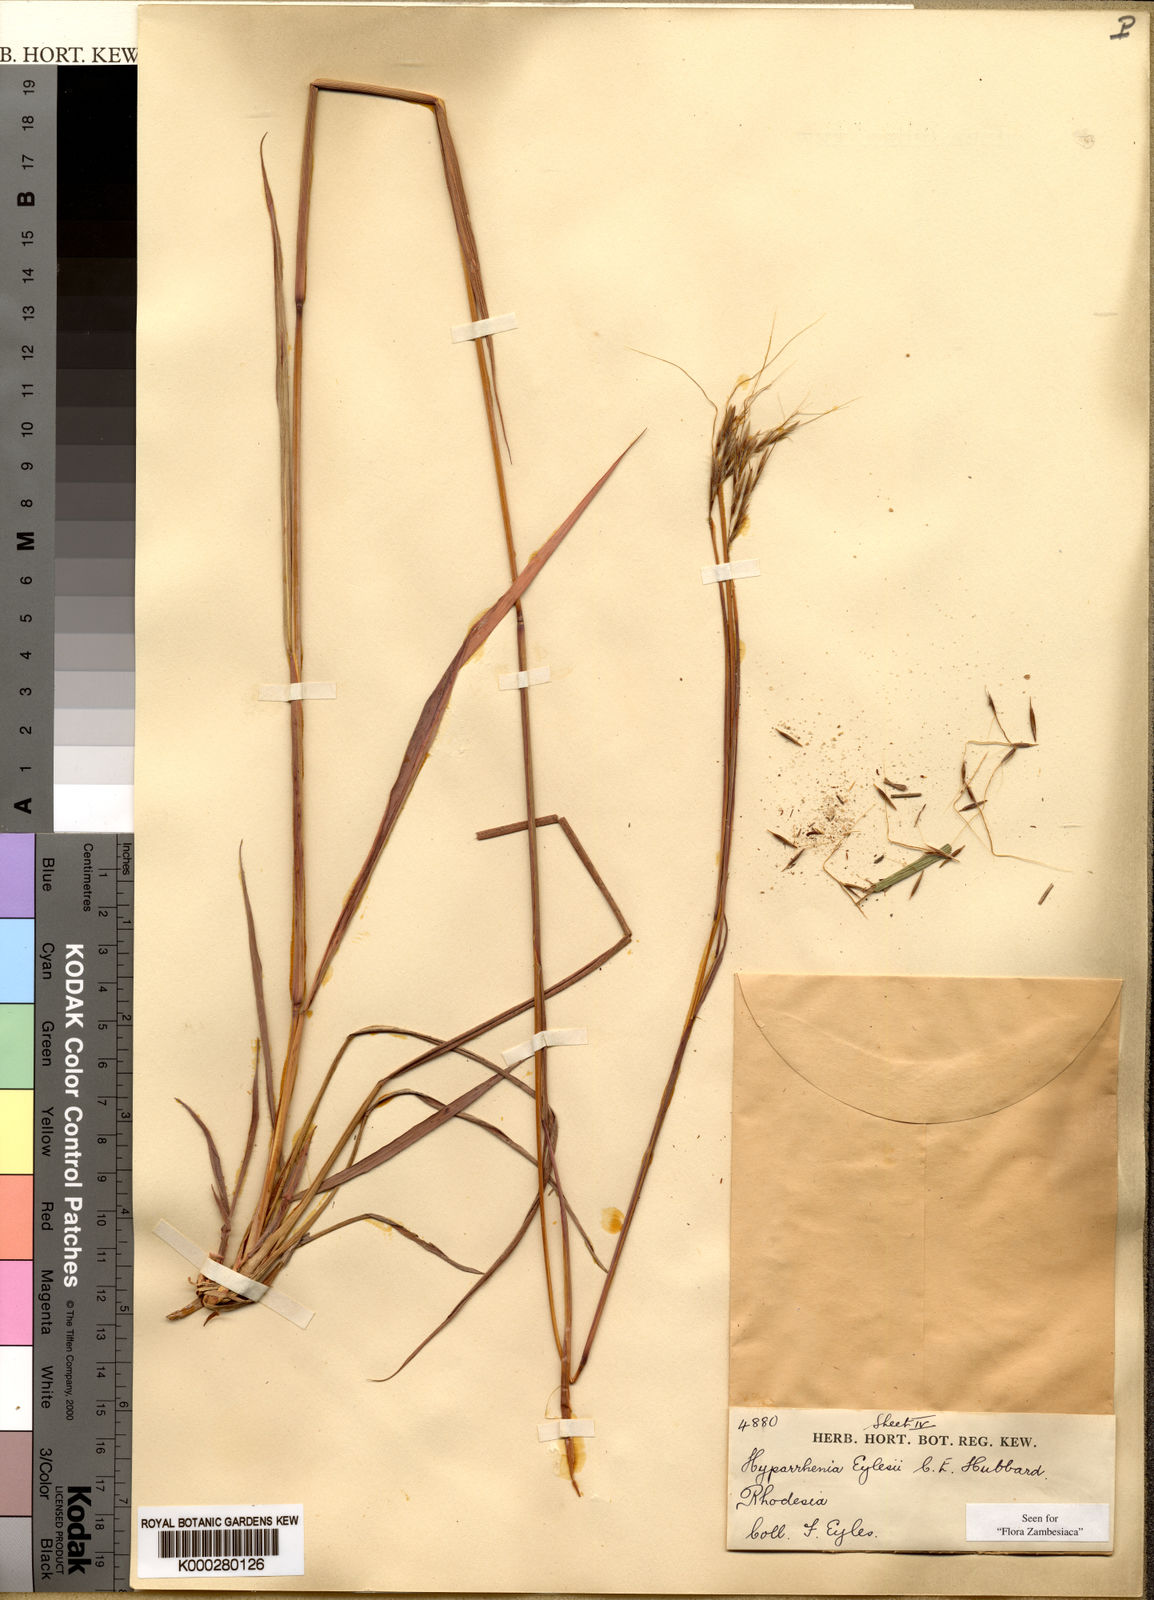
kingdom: Plantae
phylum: Tracheophyta
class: Liliopsida
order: Poales
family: Poaceae
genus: Elymandra
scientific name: Elymandra grallata
